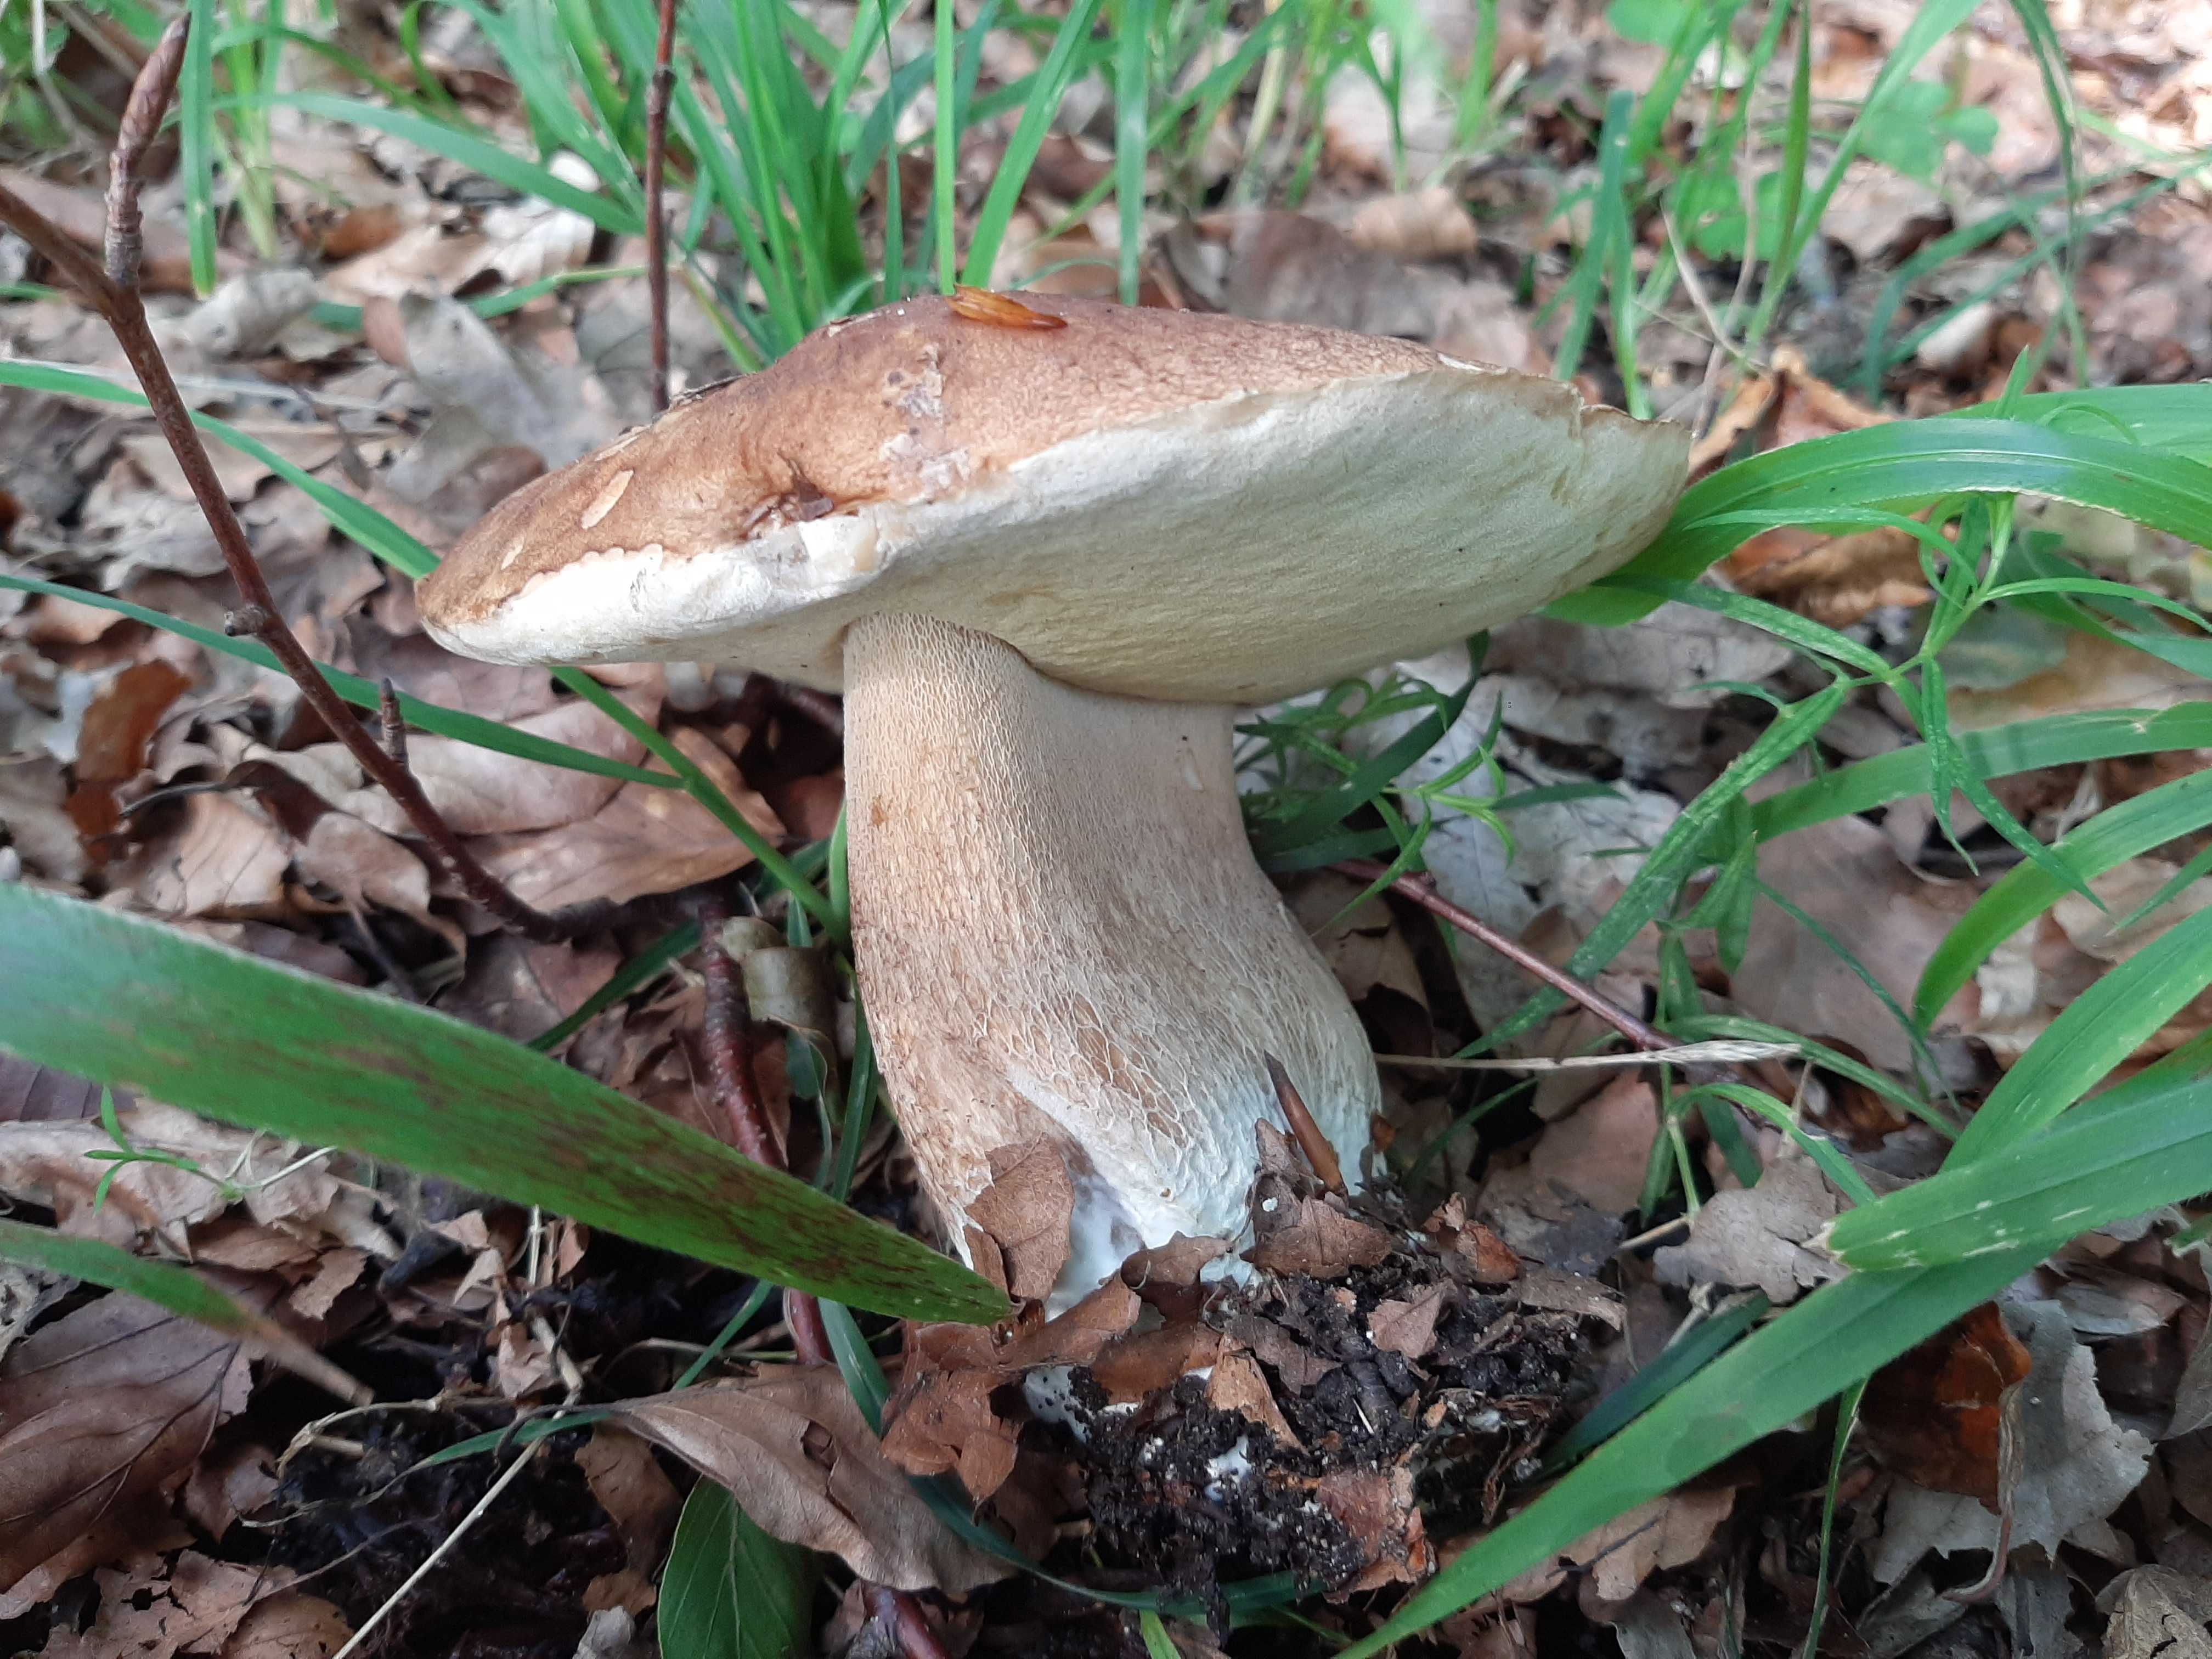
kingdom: Fungi
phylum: Basidiomycota
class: Agaricomycetes
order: Boletales
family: Boletaceae
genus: Boletus
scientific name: Boletus reticulatus
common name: sommer-rørhat
